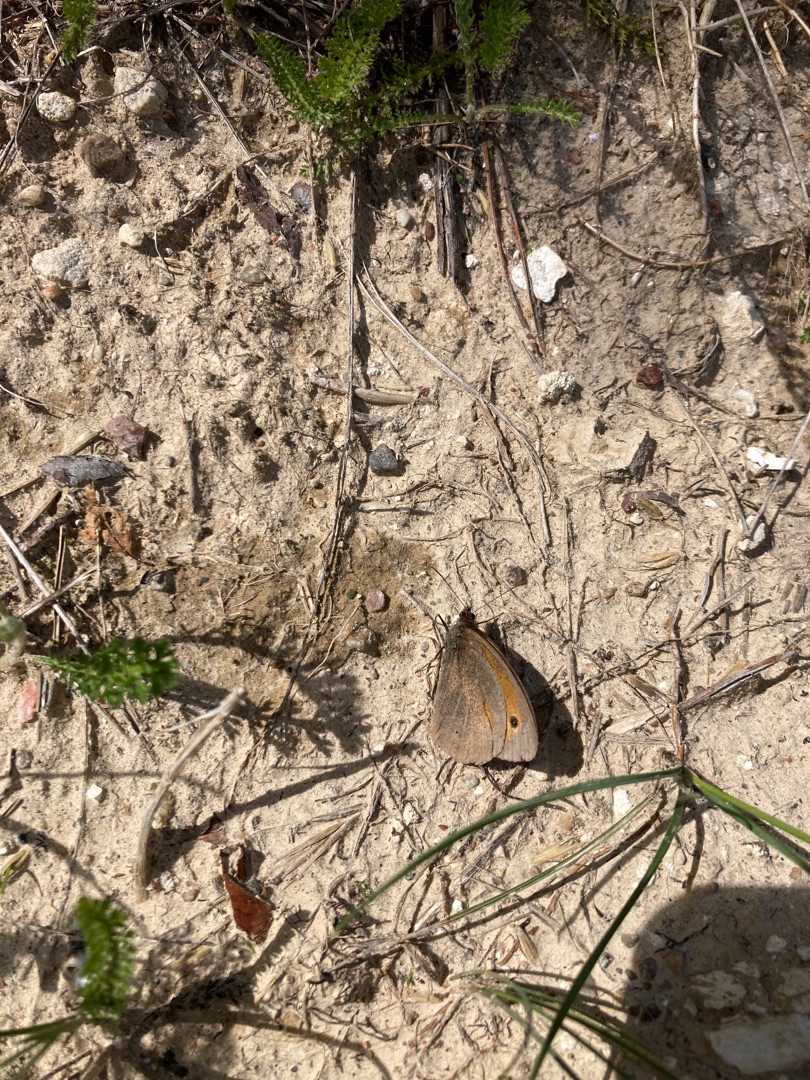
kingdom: Animalia
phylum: Arthropoda
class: Insecta
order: Lepidoptera
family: Nymphalidae
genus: Maniola
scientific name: Maniola jurtina
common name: Græsrandøje
